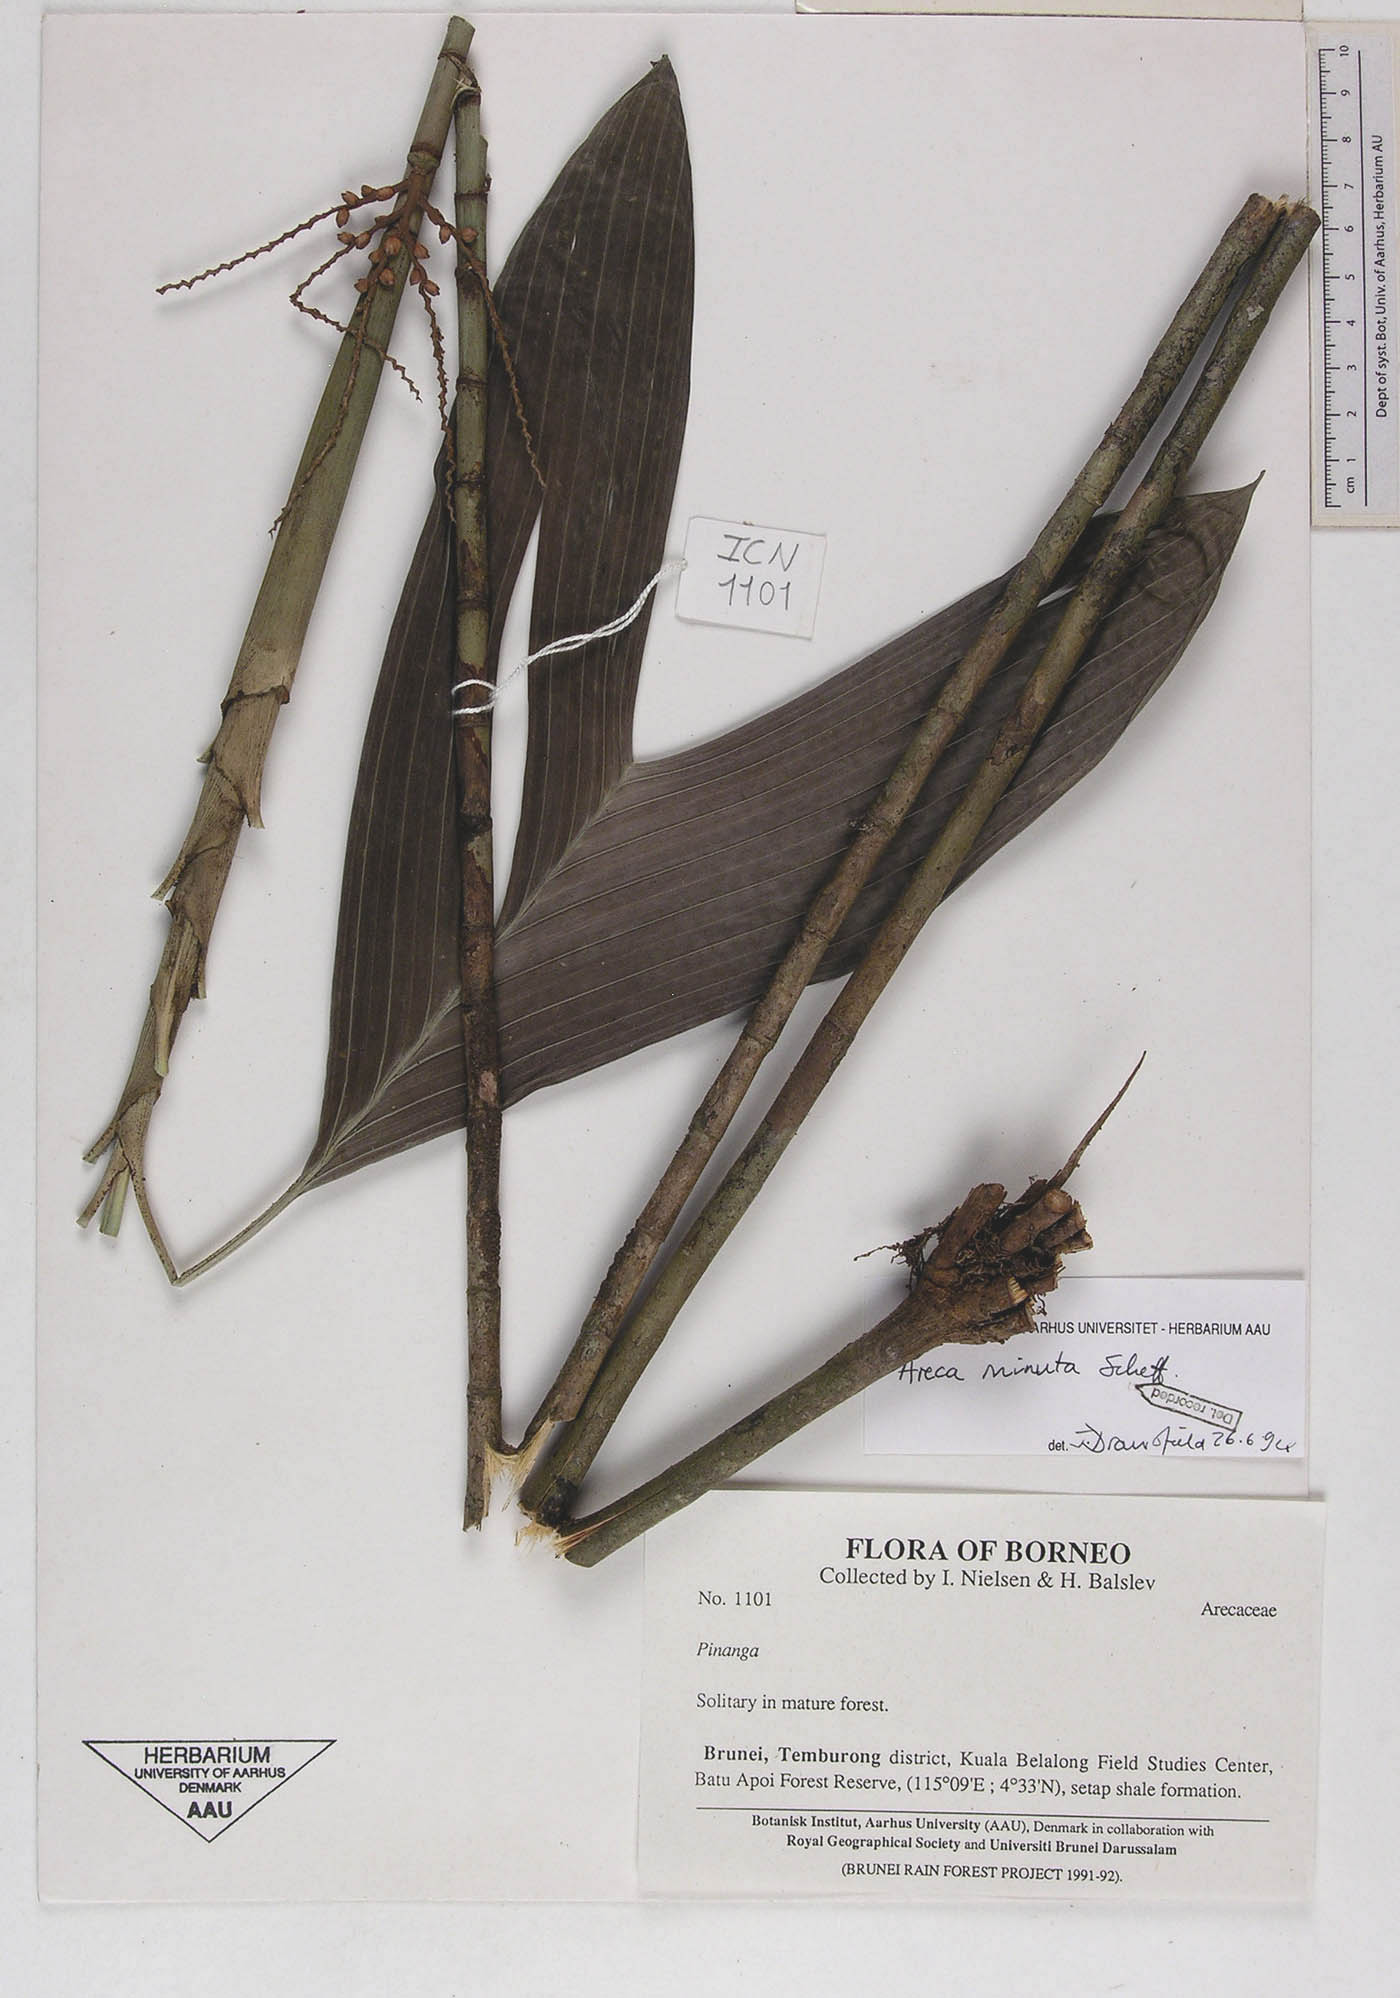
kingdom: Plantae
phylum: Tracheophyta
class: Liliopsida
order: Arecales
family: Arecaceae
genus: Areca
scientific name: Areca minuta
